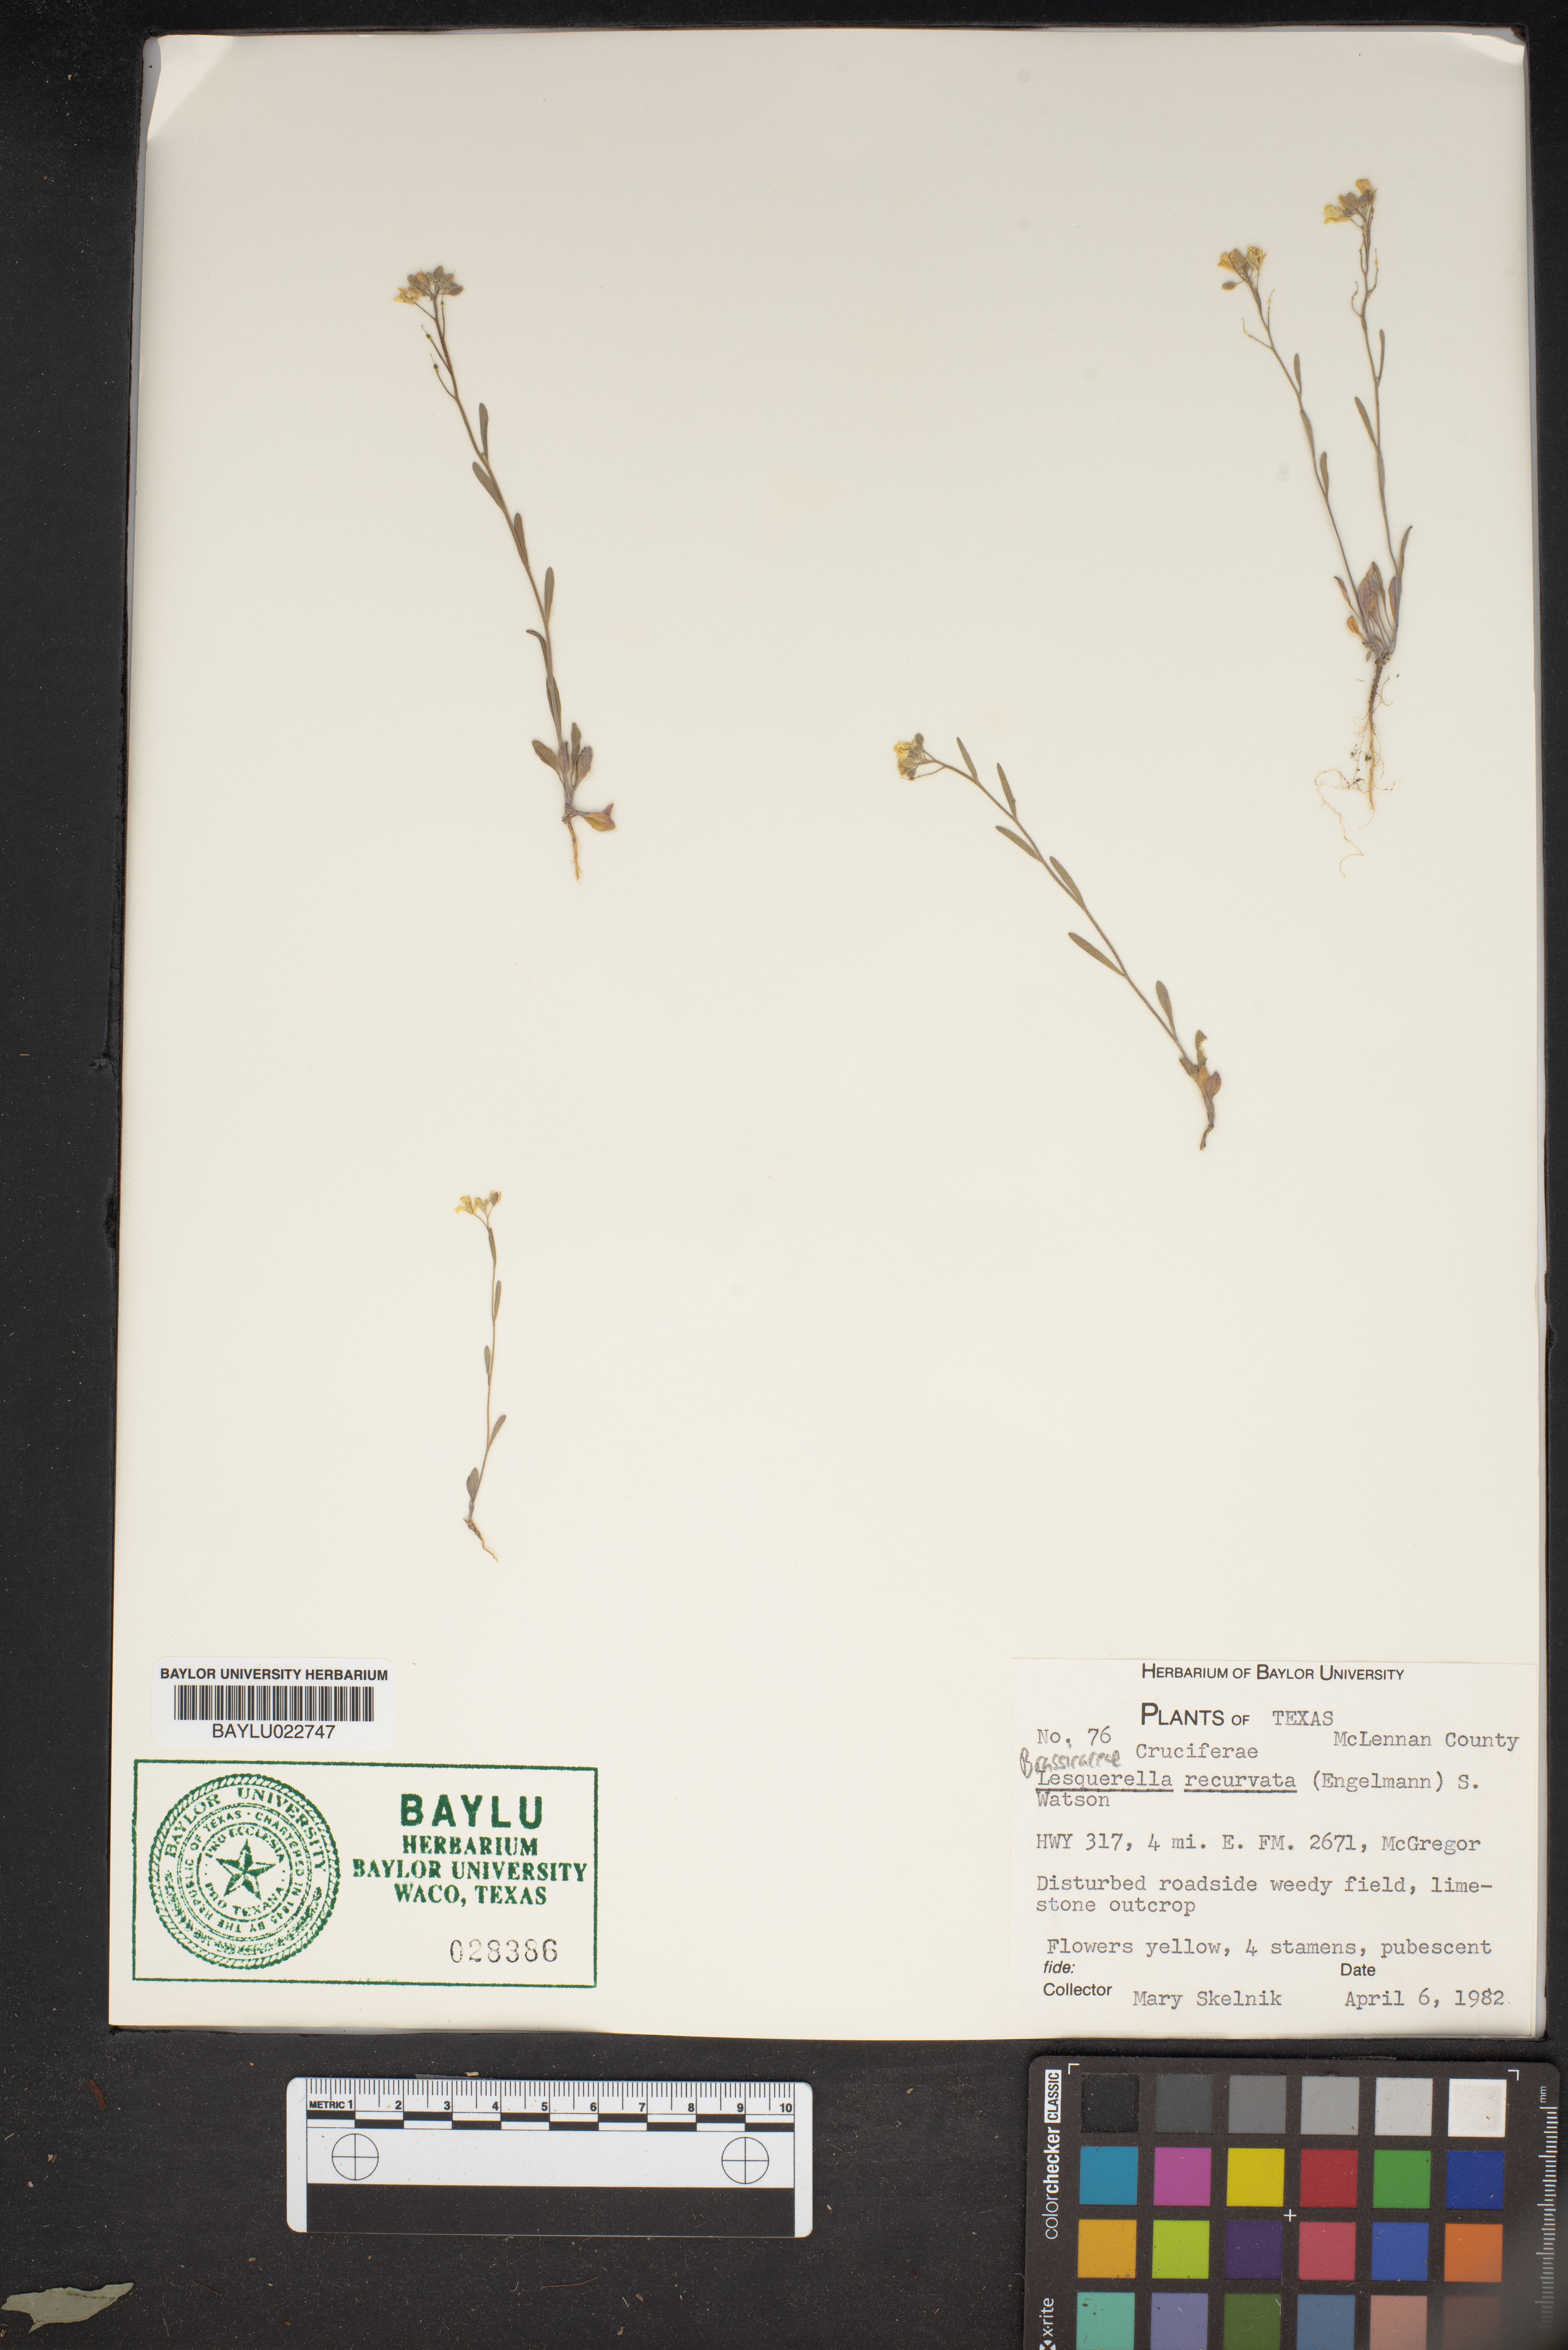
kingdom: Plantae
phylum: Tracheophyta
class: Magnoliopsida
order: Brassicales
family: Brassicaceae
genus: Physaria
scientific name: Physaria recurvata
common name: Gaslight bladderpod
